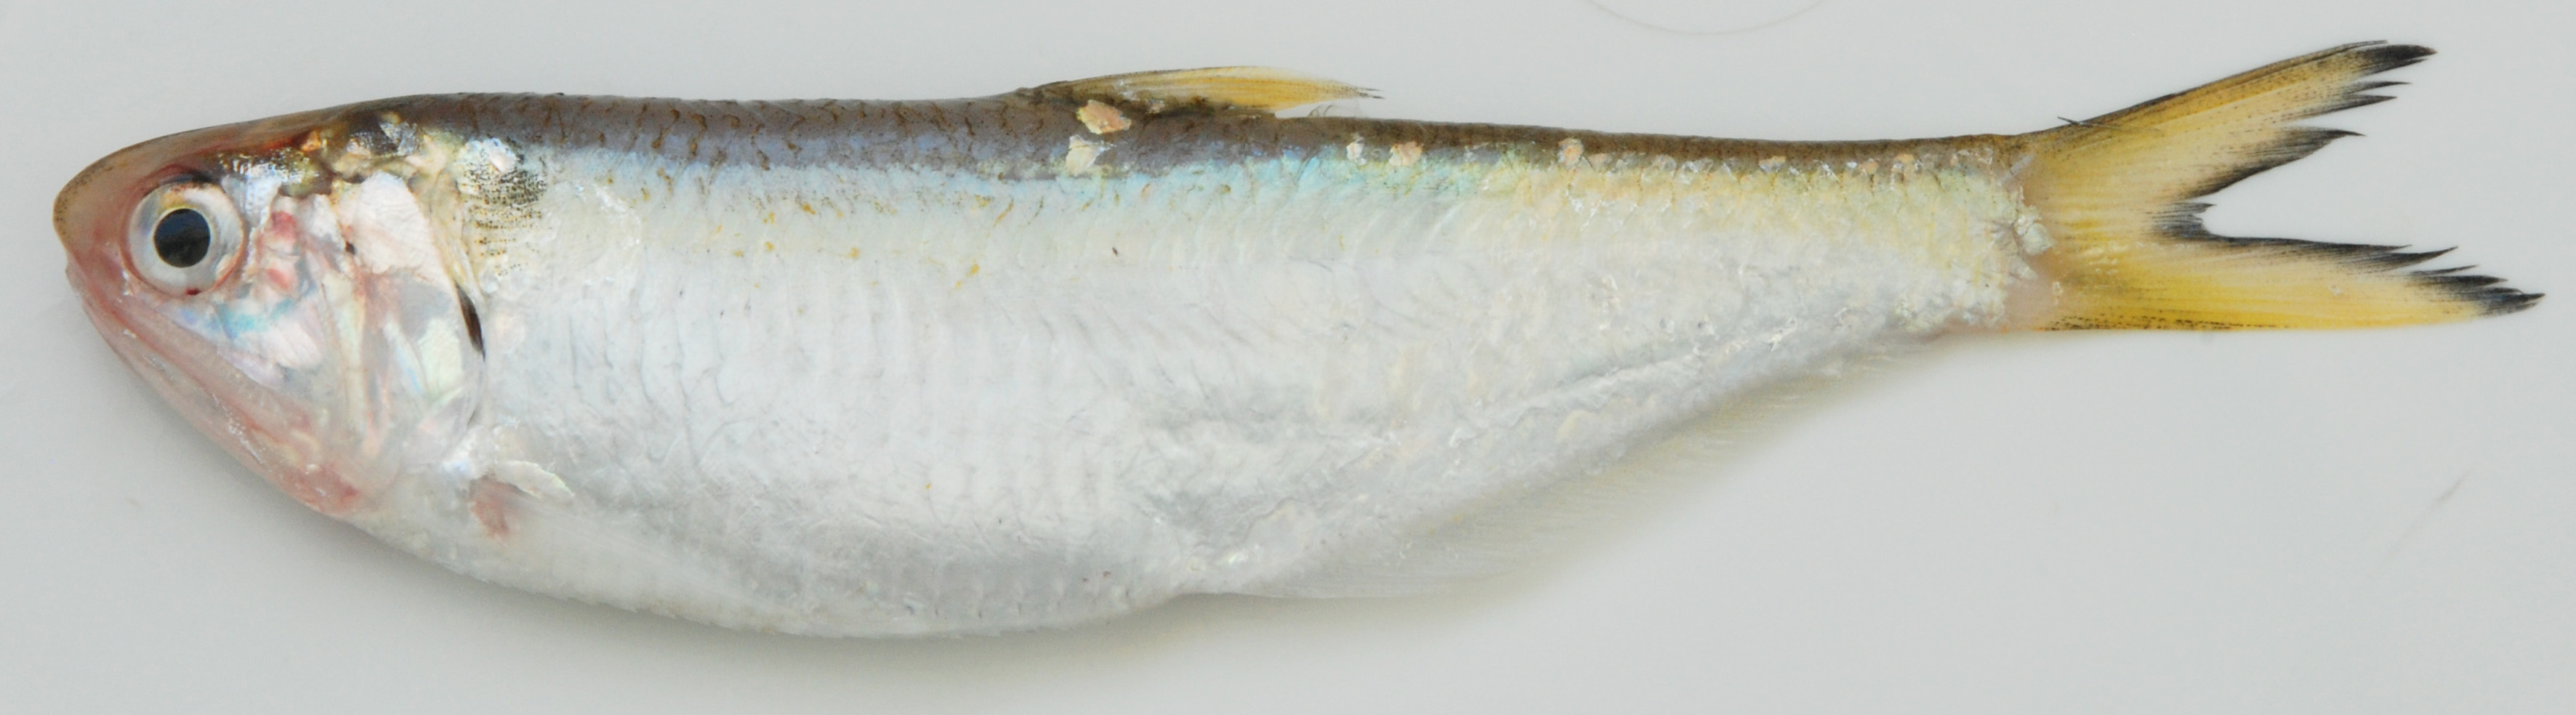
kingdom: Animalia
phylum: Chordata
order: Clupeiformes
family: Engraulidae
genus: Thryssa
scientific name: Thryssa vitrirostris
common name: Orangemouth anchovy
